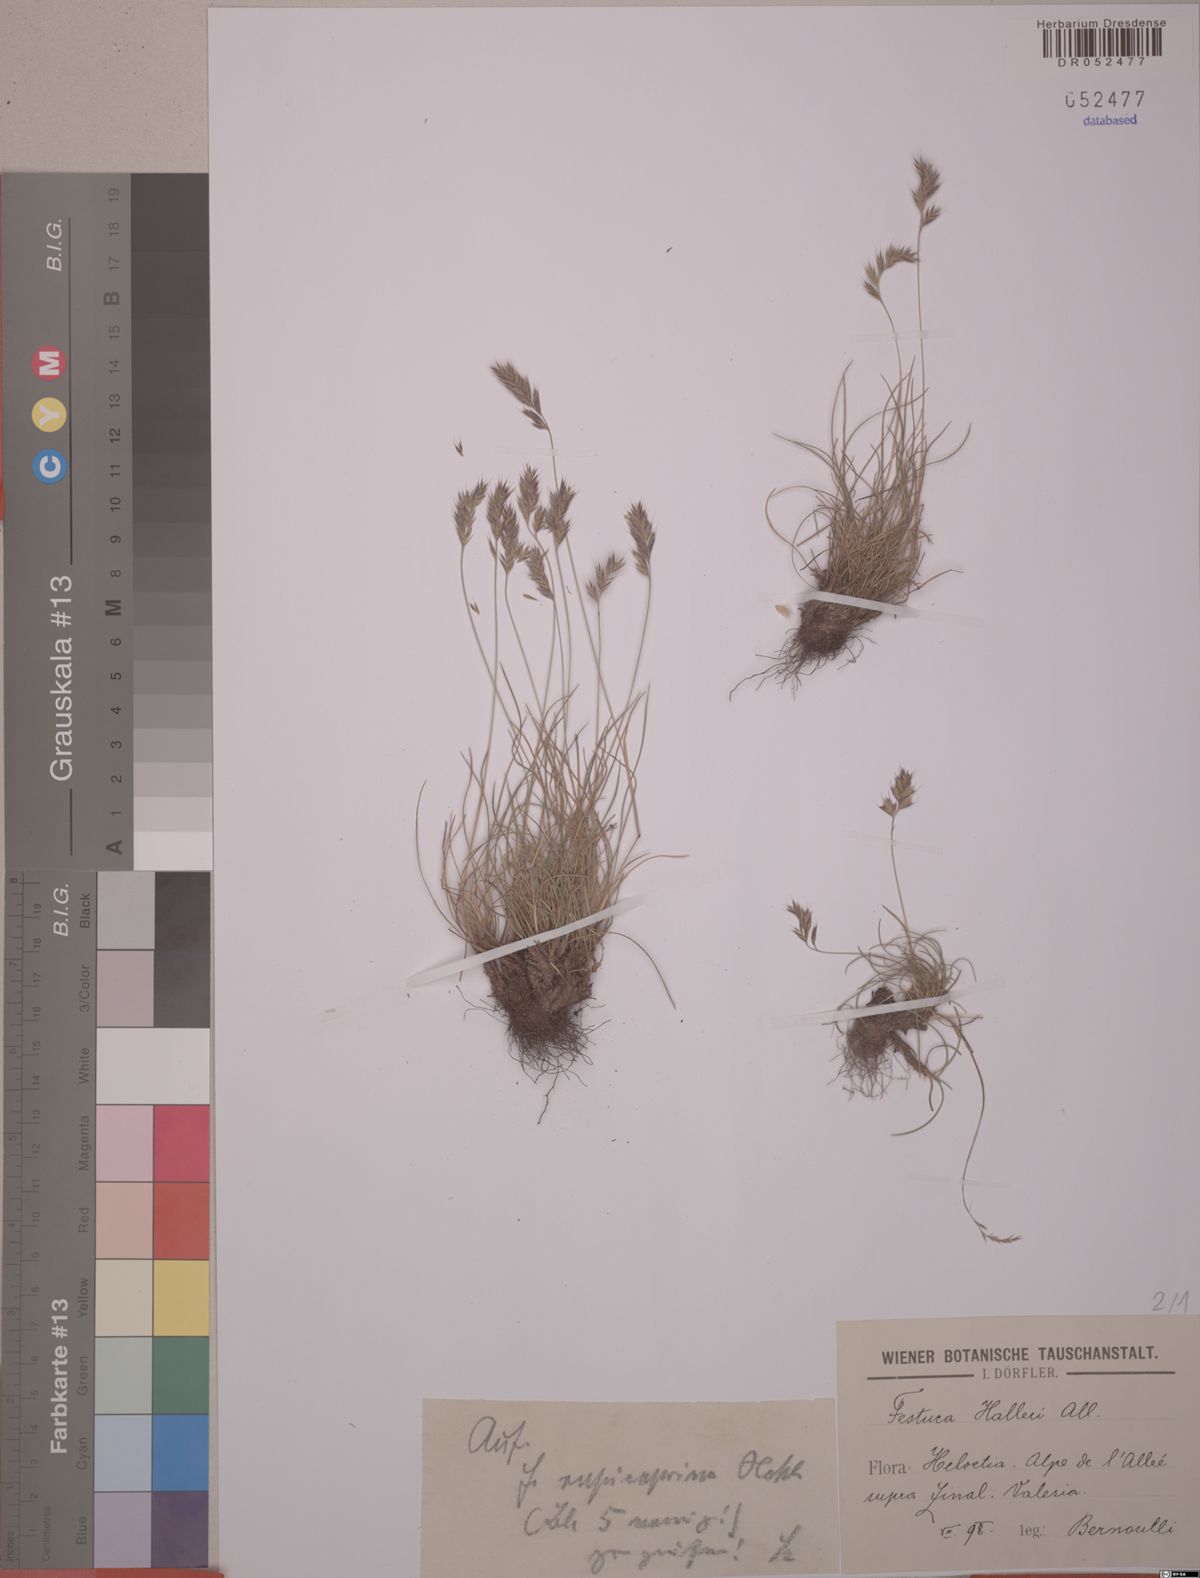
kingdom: Plantae
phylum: Tracheophyta
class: Liliopsida
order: Poales
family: Poaceae
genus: Festuca
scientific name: Festuca halleri
